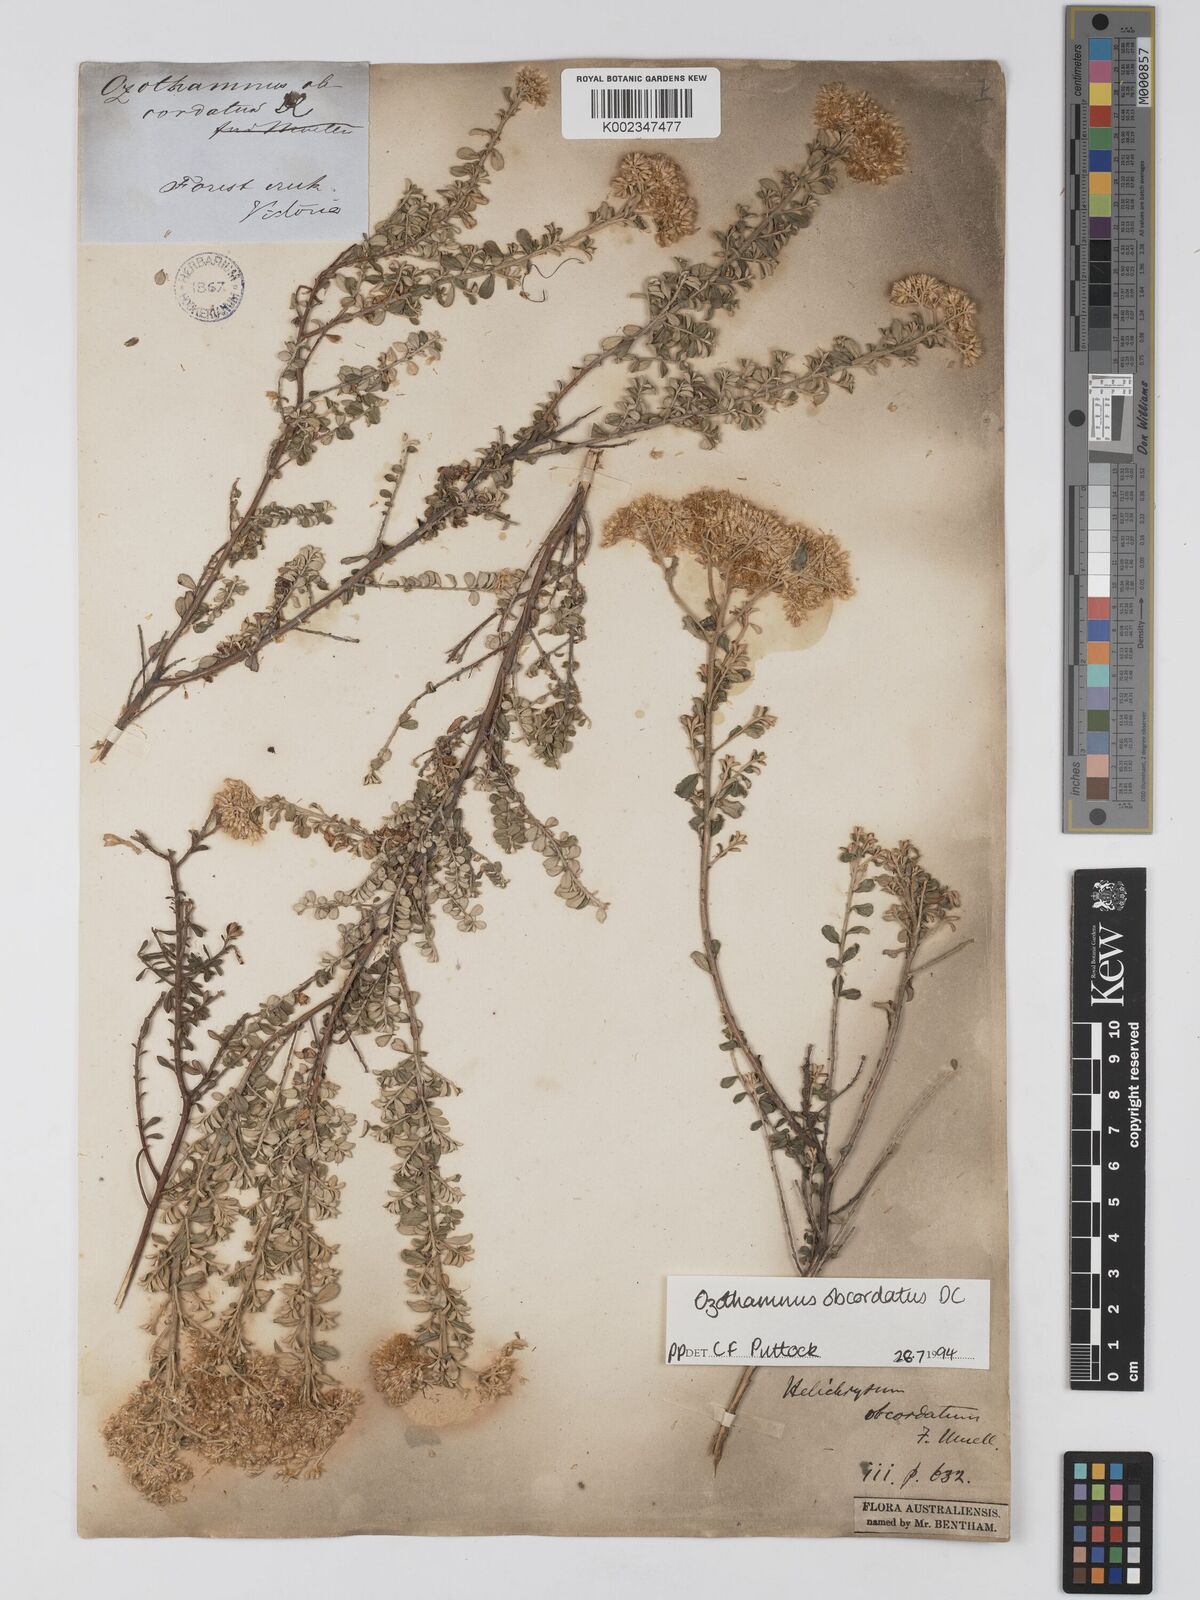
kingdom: Plantae
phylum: Tracheophyta
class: Magnoliopsida
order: Asterales
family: Asteraceae
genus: Ozothamnus
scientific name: Ozothamnus
